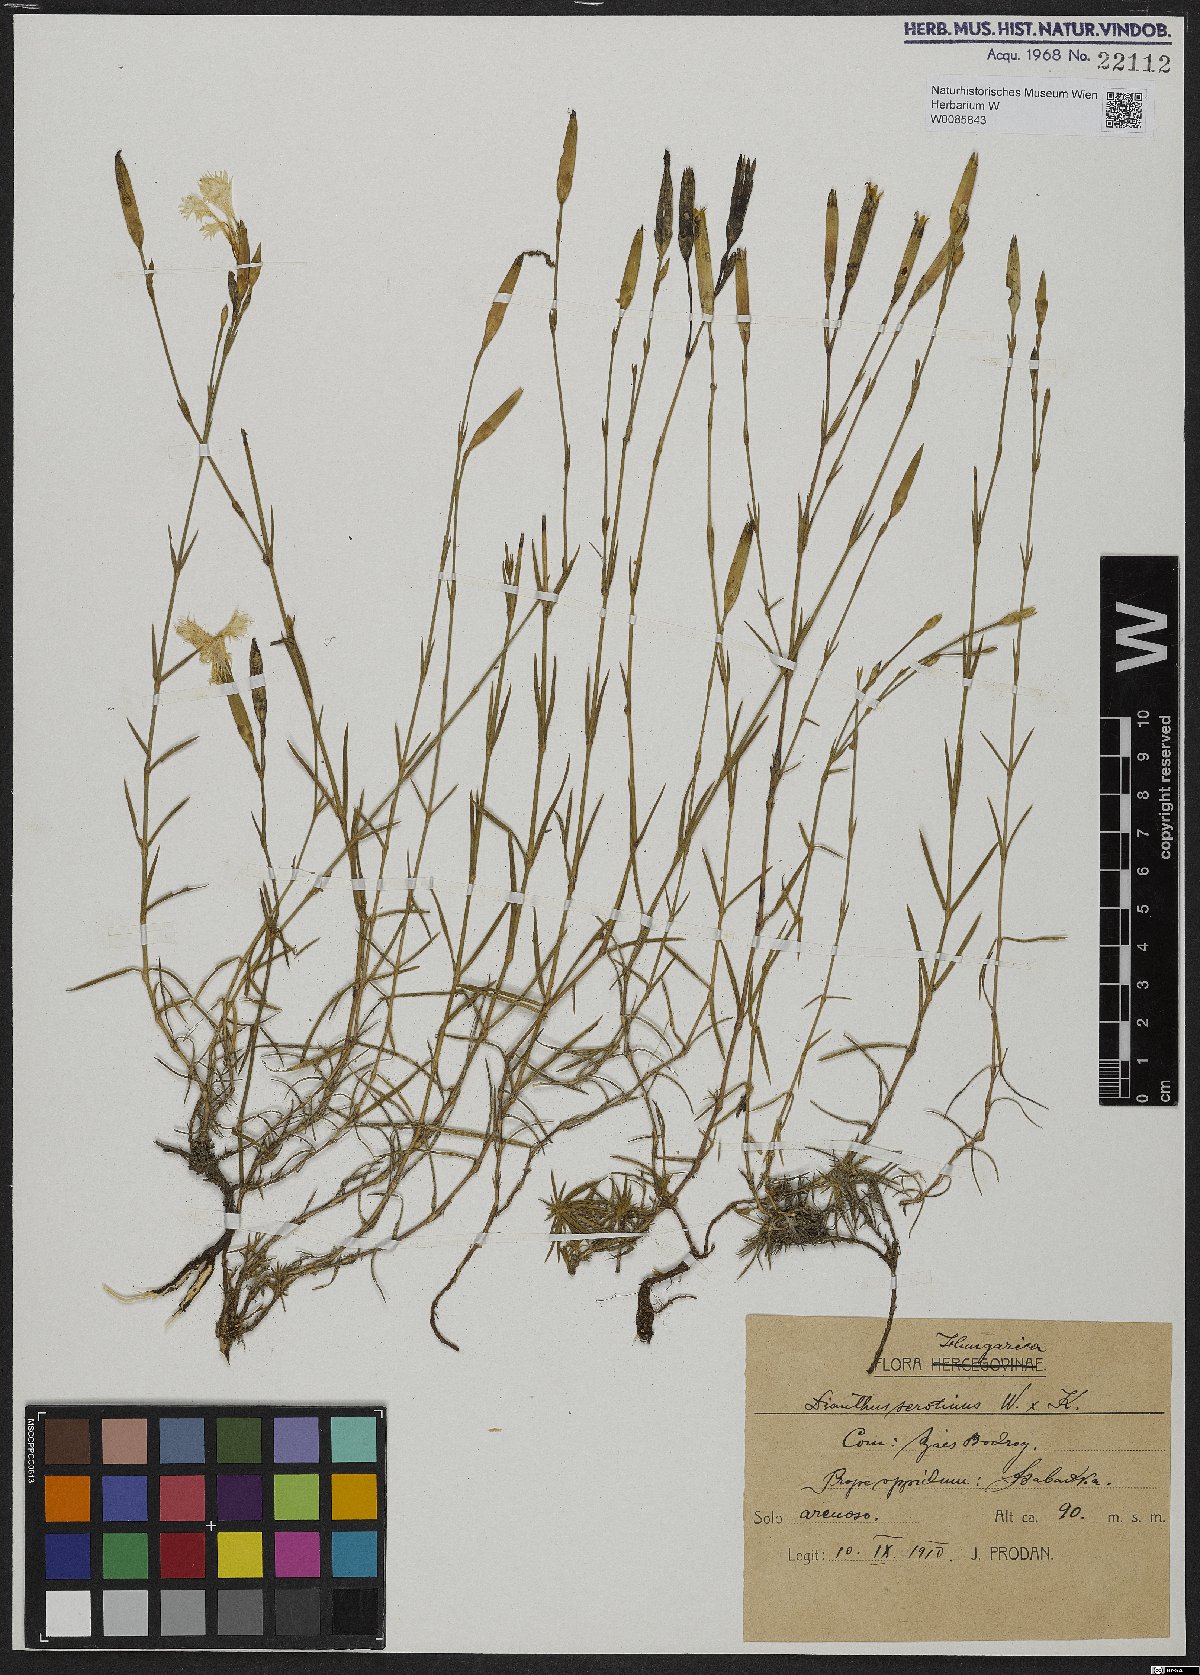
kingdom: Plantae
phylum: Tracheophyta
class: Magnoliopsida
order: Caryophyllales
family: Caryophyllaceae
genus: Dianthus
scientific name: Dianthus serotinus
